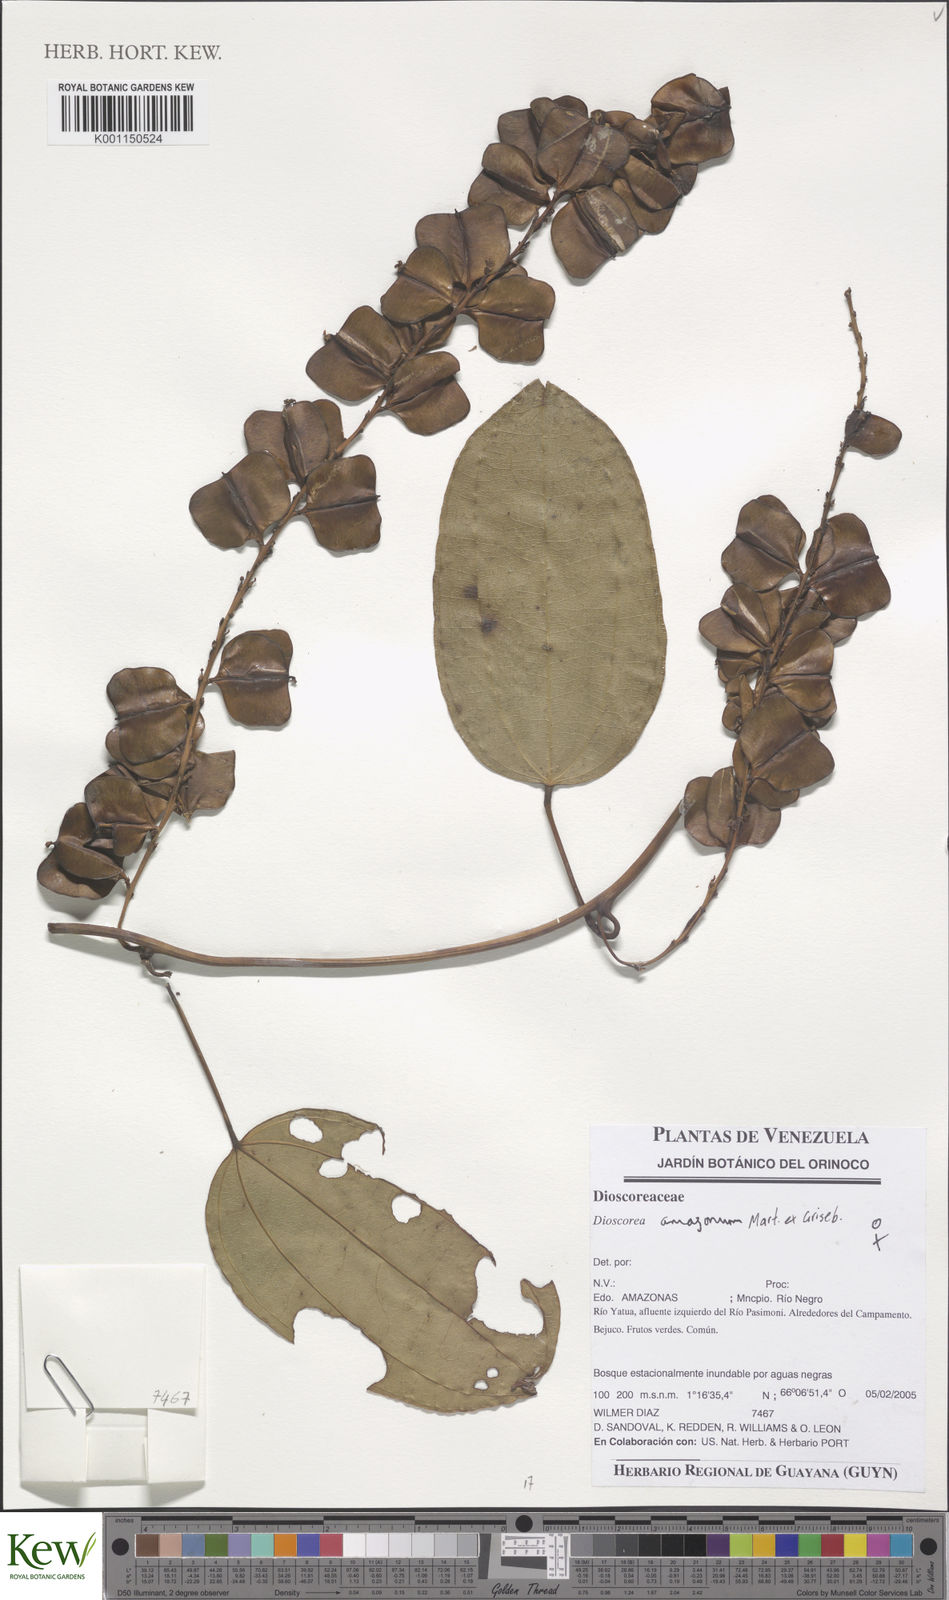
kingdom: Plantae
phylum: Tracheophyta
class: Liliopsida
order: Dioscoreales
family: Dioscoreaceae
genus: Dioscorea
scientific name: Dioscorea amazonum
